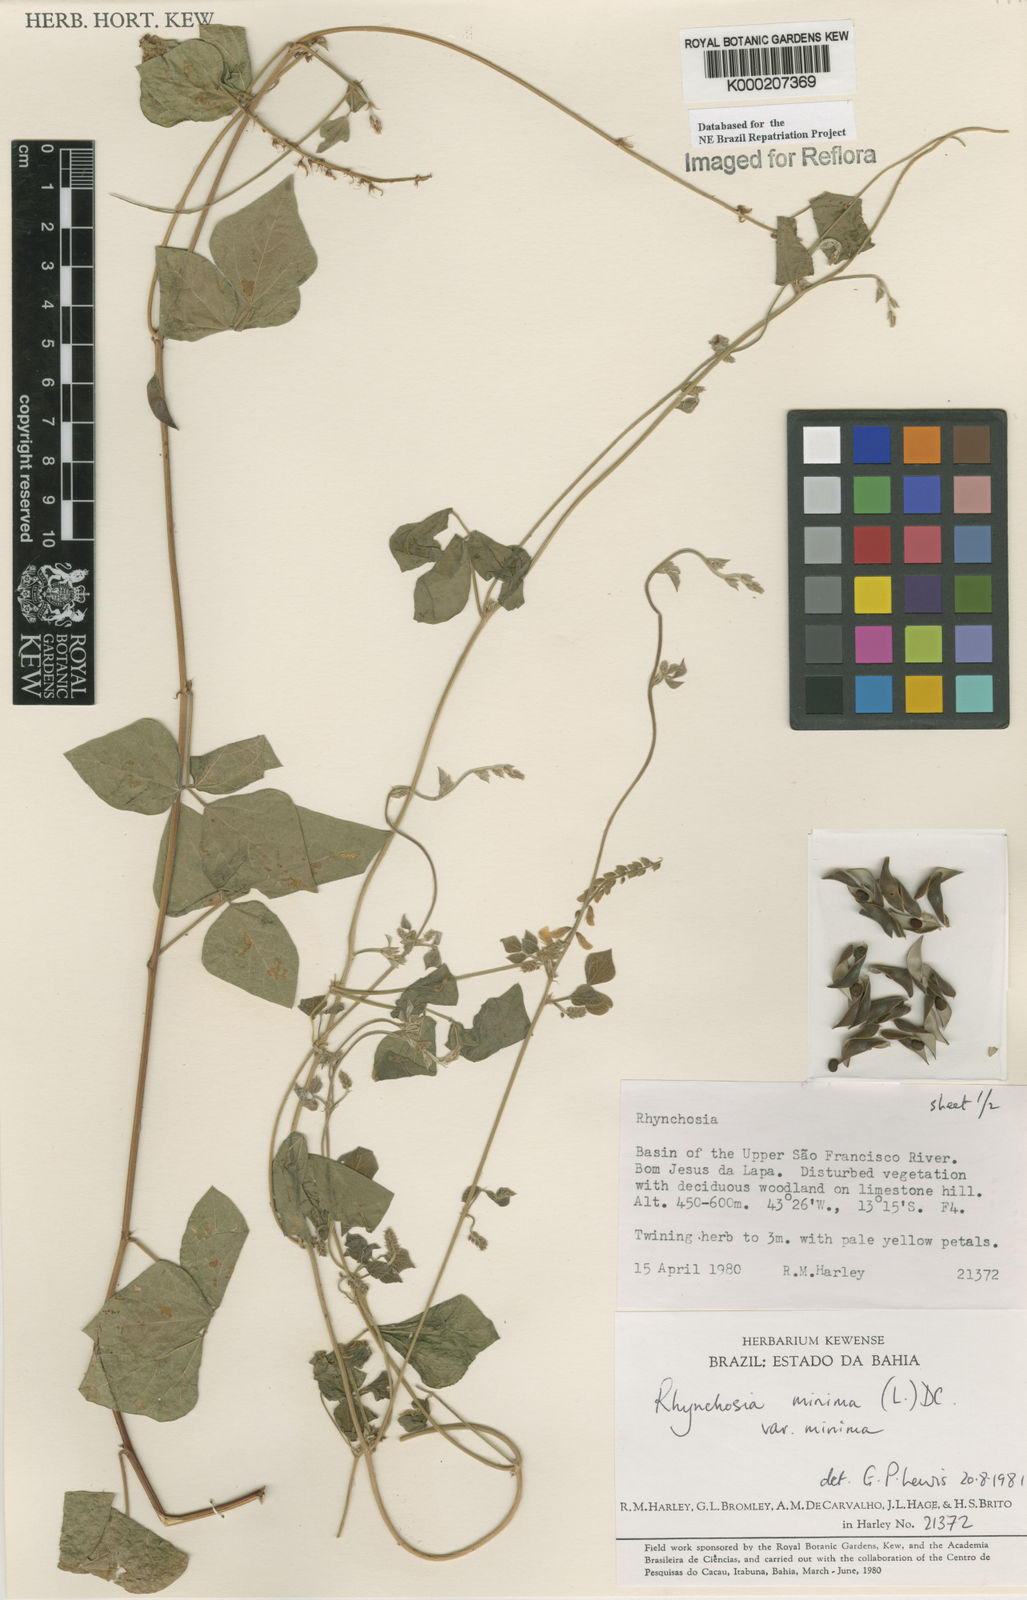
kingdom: Plantae
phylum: Tracheophyta
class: Magnoliopsida
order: Fabales
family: Fabaceae
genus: Rhynchosia
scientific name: Rhynchosia minima
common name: Least snoutbean
